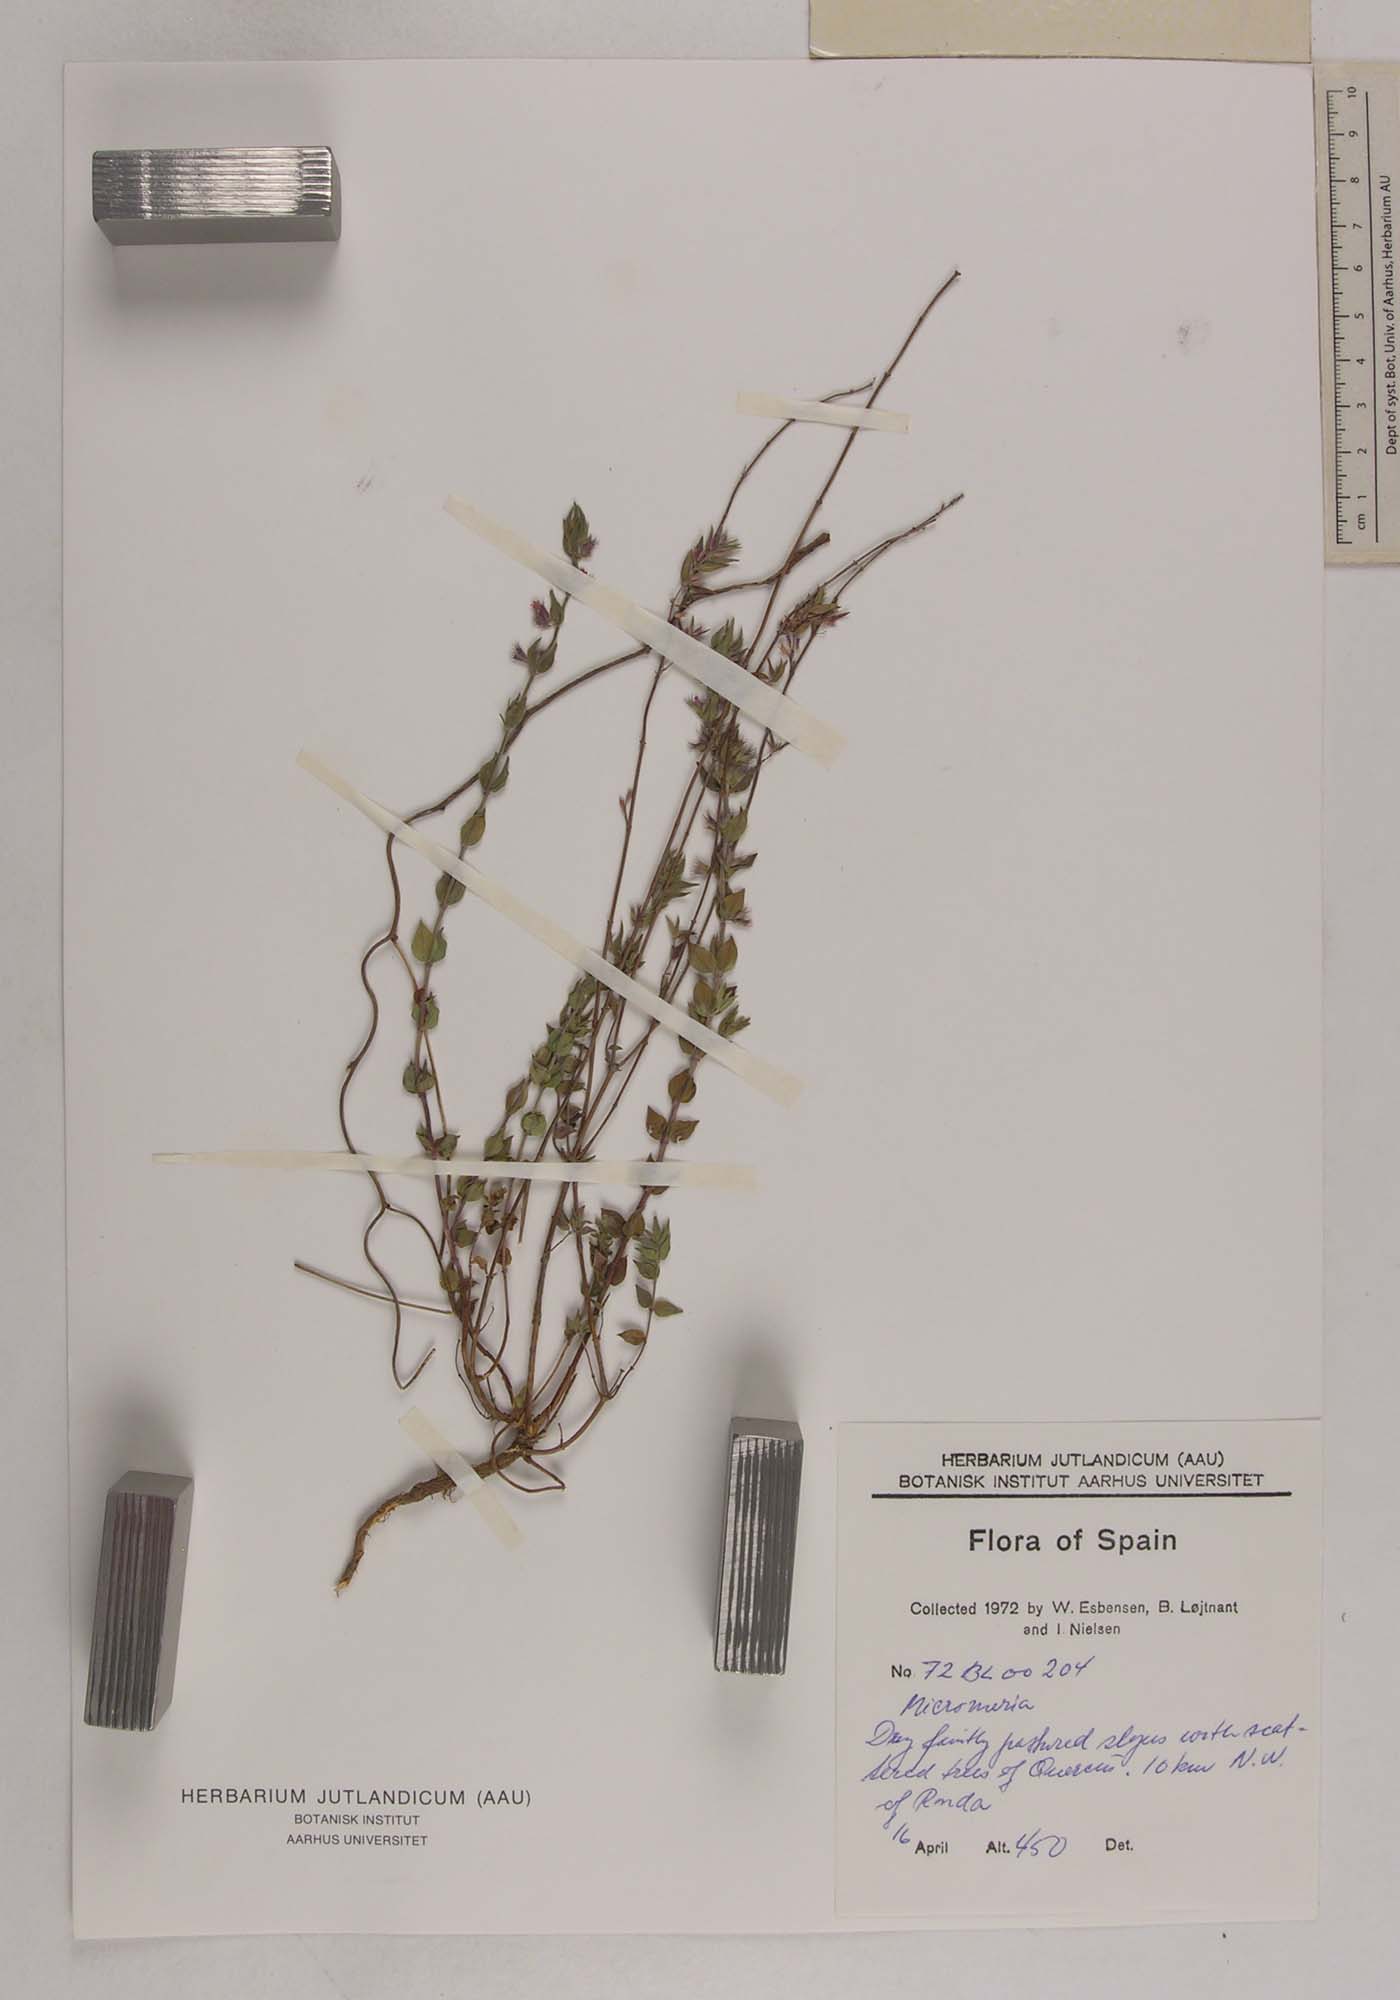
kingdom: Plantae
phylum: Tracheophyta
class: Magnoliopsida
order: Lamiales
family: Lamiaceae
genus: Micromeria
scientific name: Micromeria
